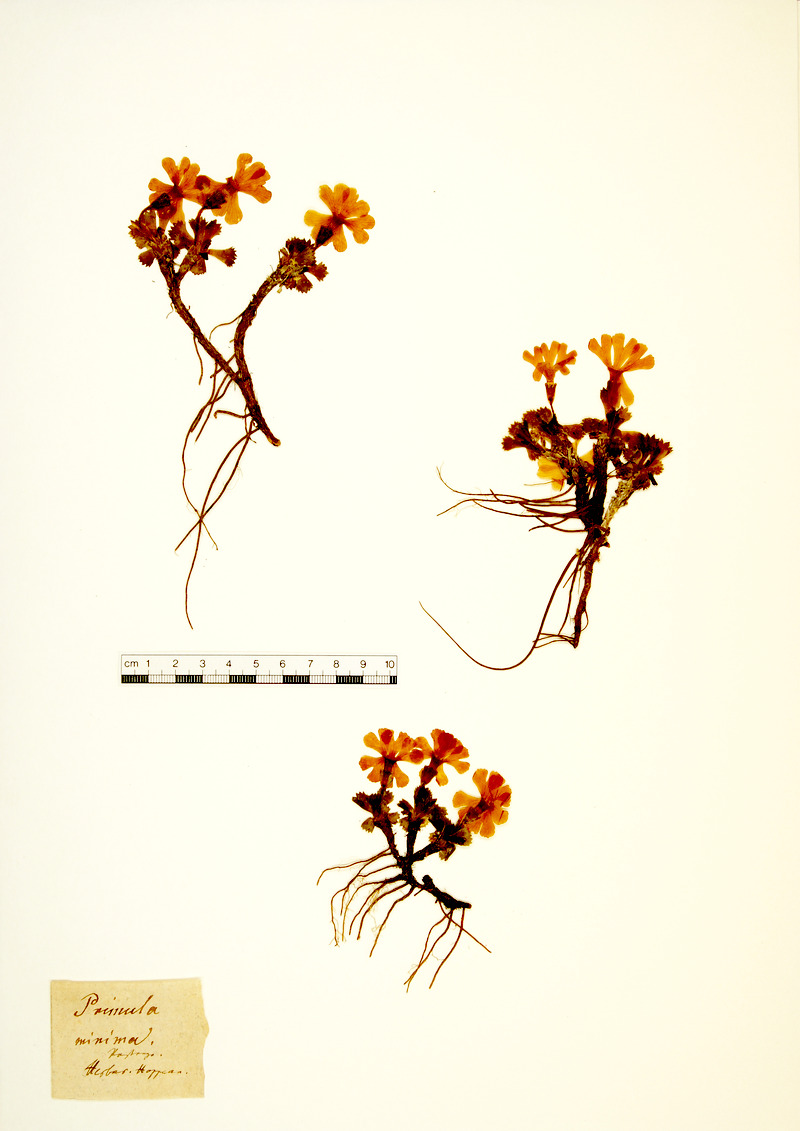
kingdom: Plantae
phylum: Tracheophyta
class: Magnoliopsida
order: Ericales
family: Primulaceae
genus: Primula
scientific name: Primula minima
